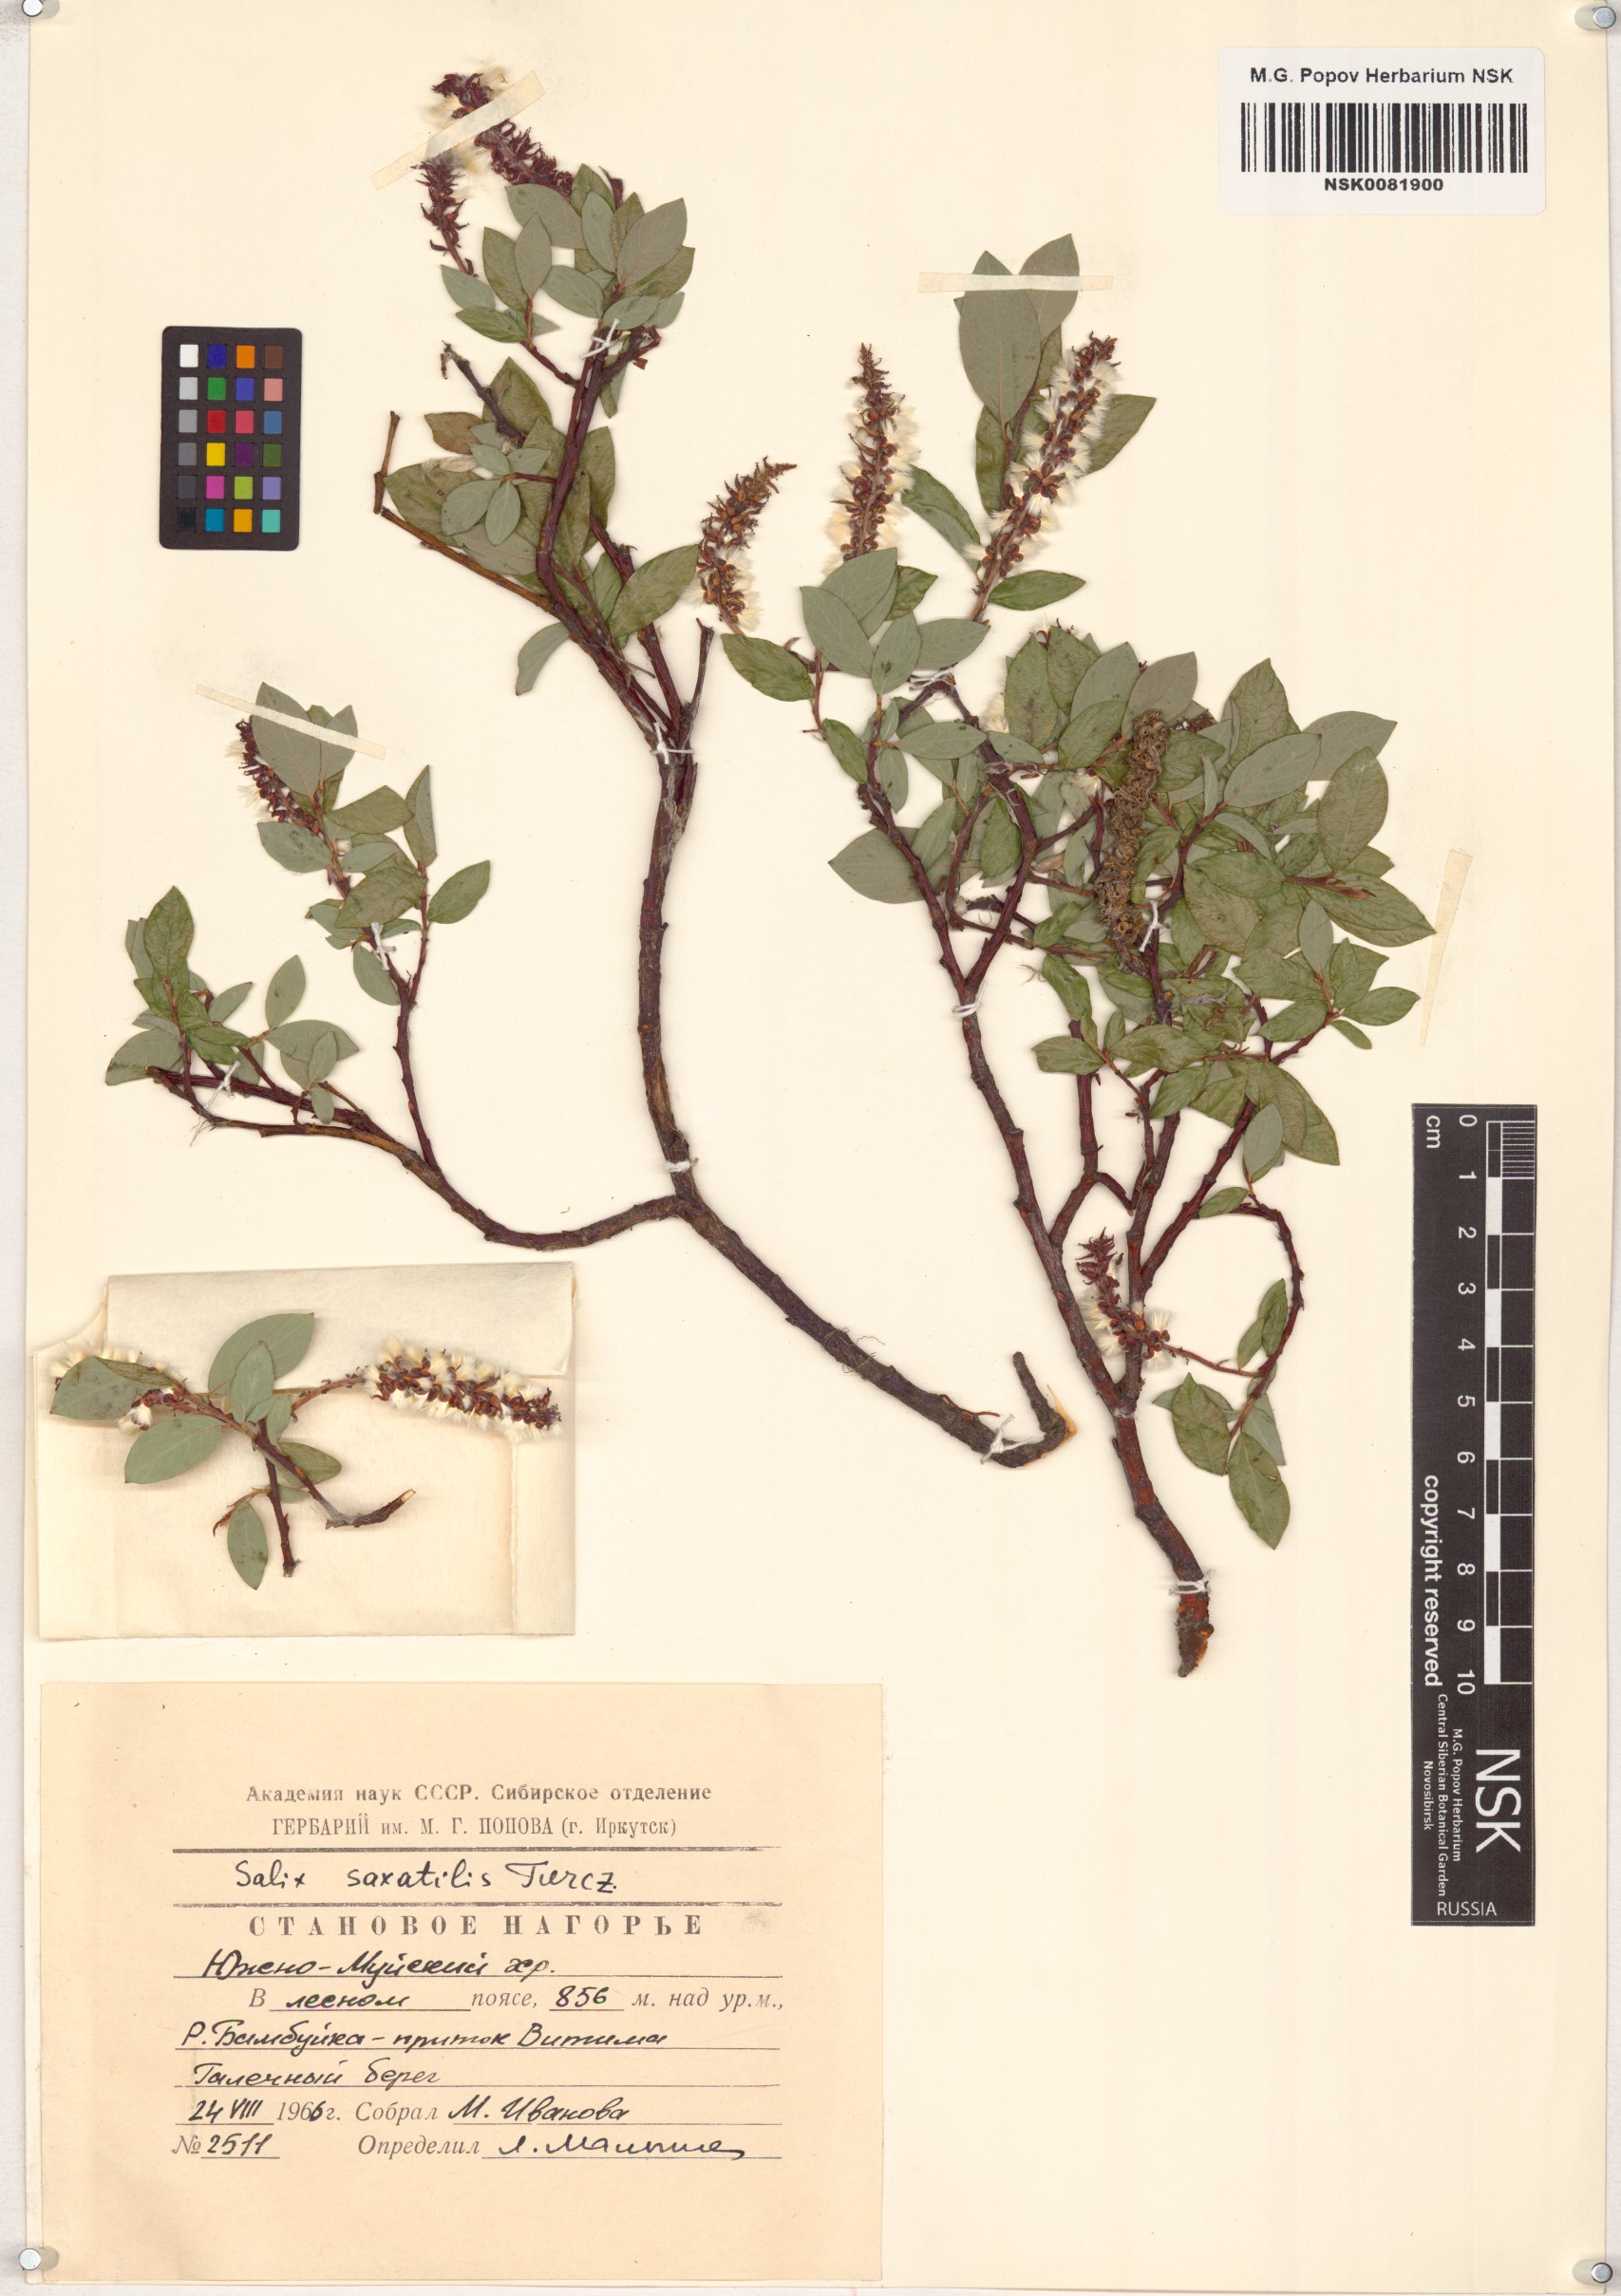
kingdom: Plantae
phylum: Tracheophyta
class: Magnoliopsida
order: Malpighiales
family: Salicaceae
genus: Salix
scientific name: Salix saxatilis
